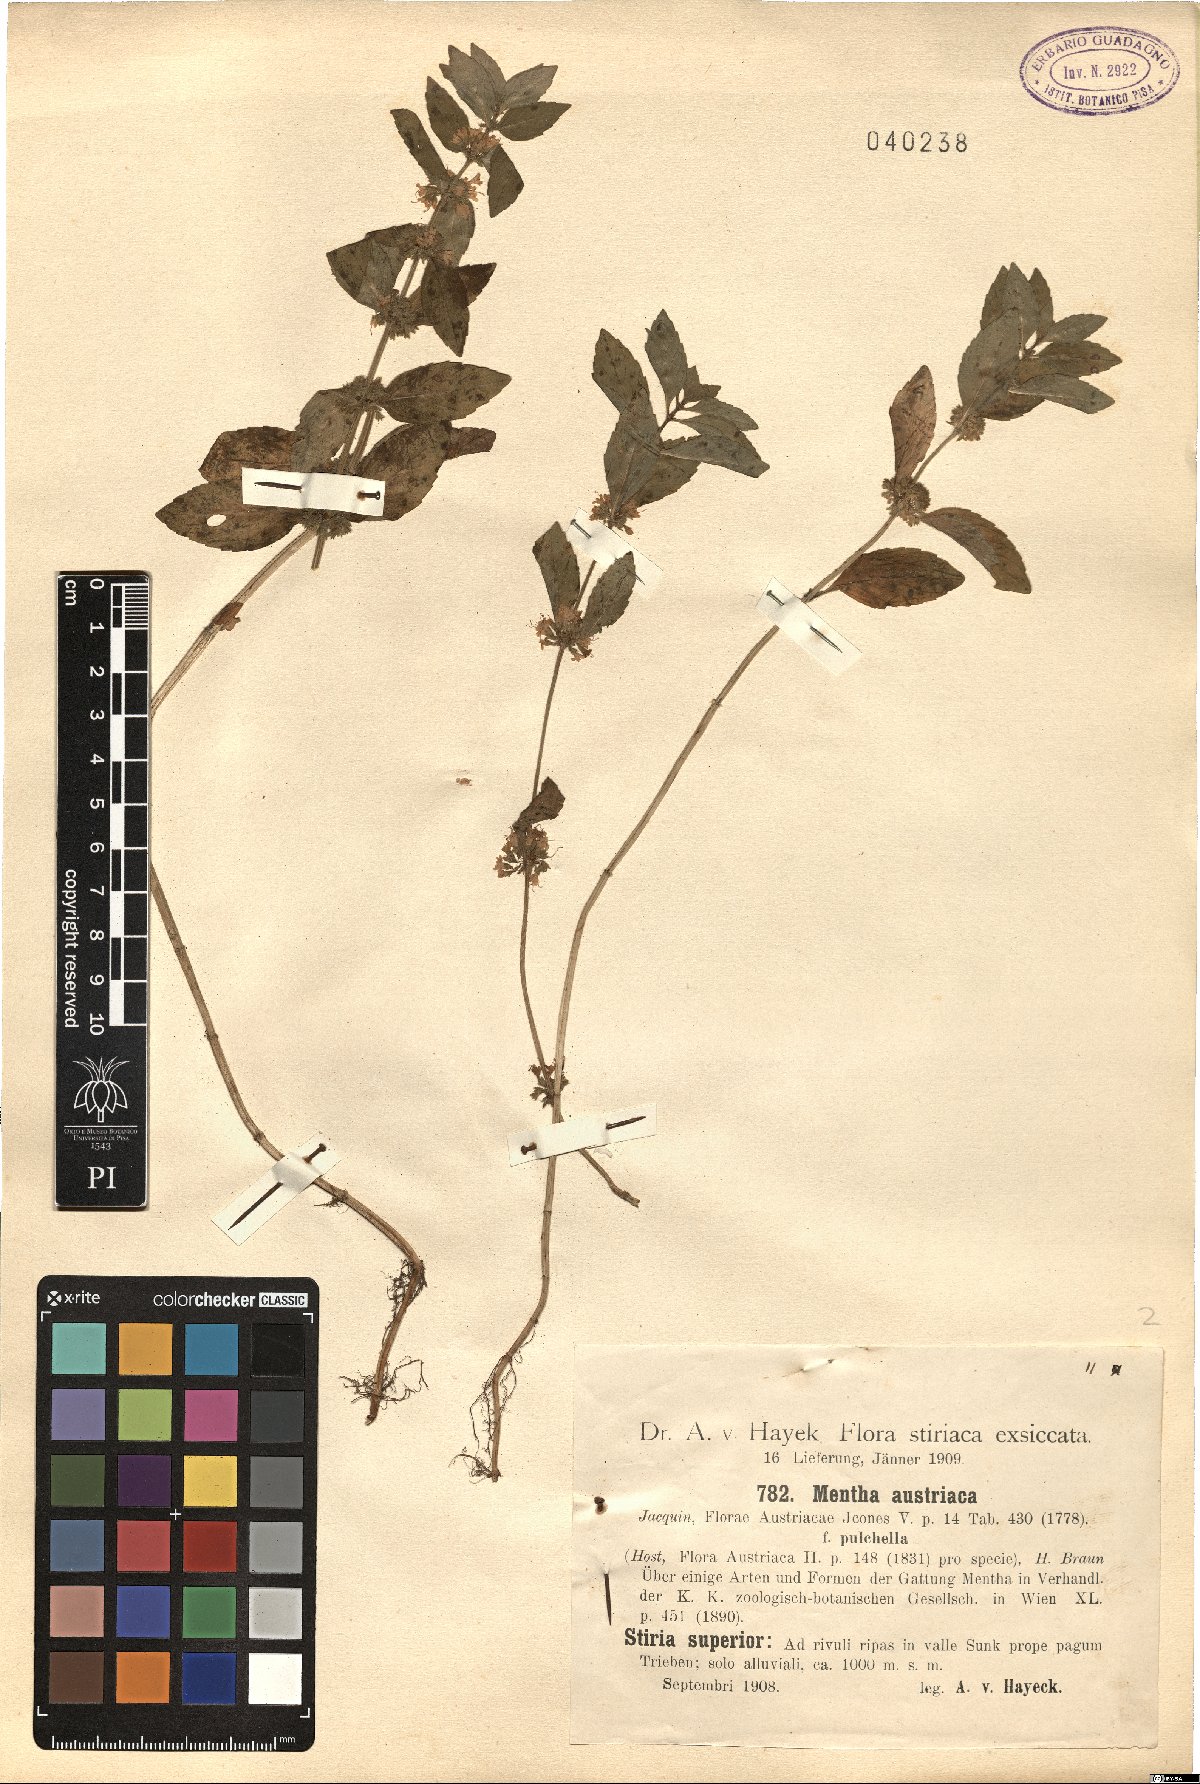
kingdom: Plantae
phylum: Tracheophyta
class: Magnoliopsida
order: Lamiales
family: Lamiaceae
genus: Mentha
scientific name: Mentha arvensis
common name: Corn mint
